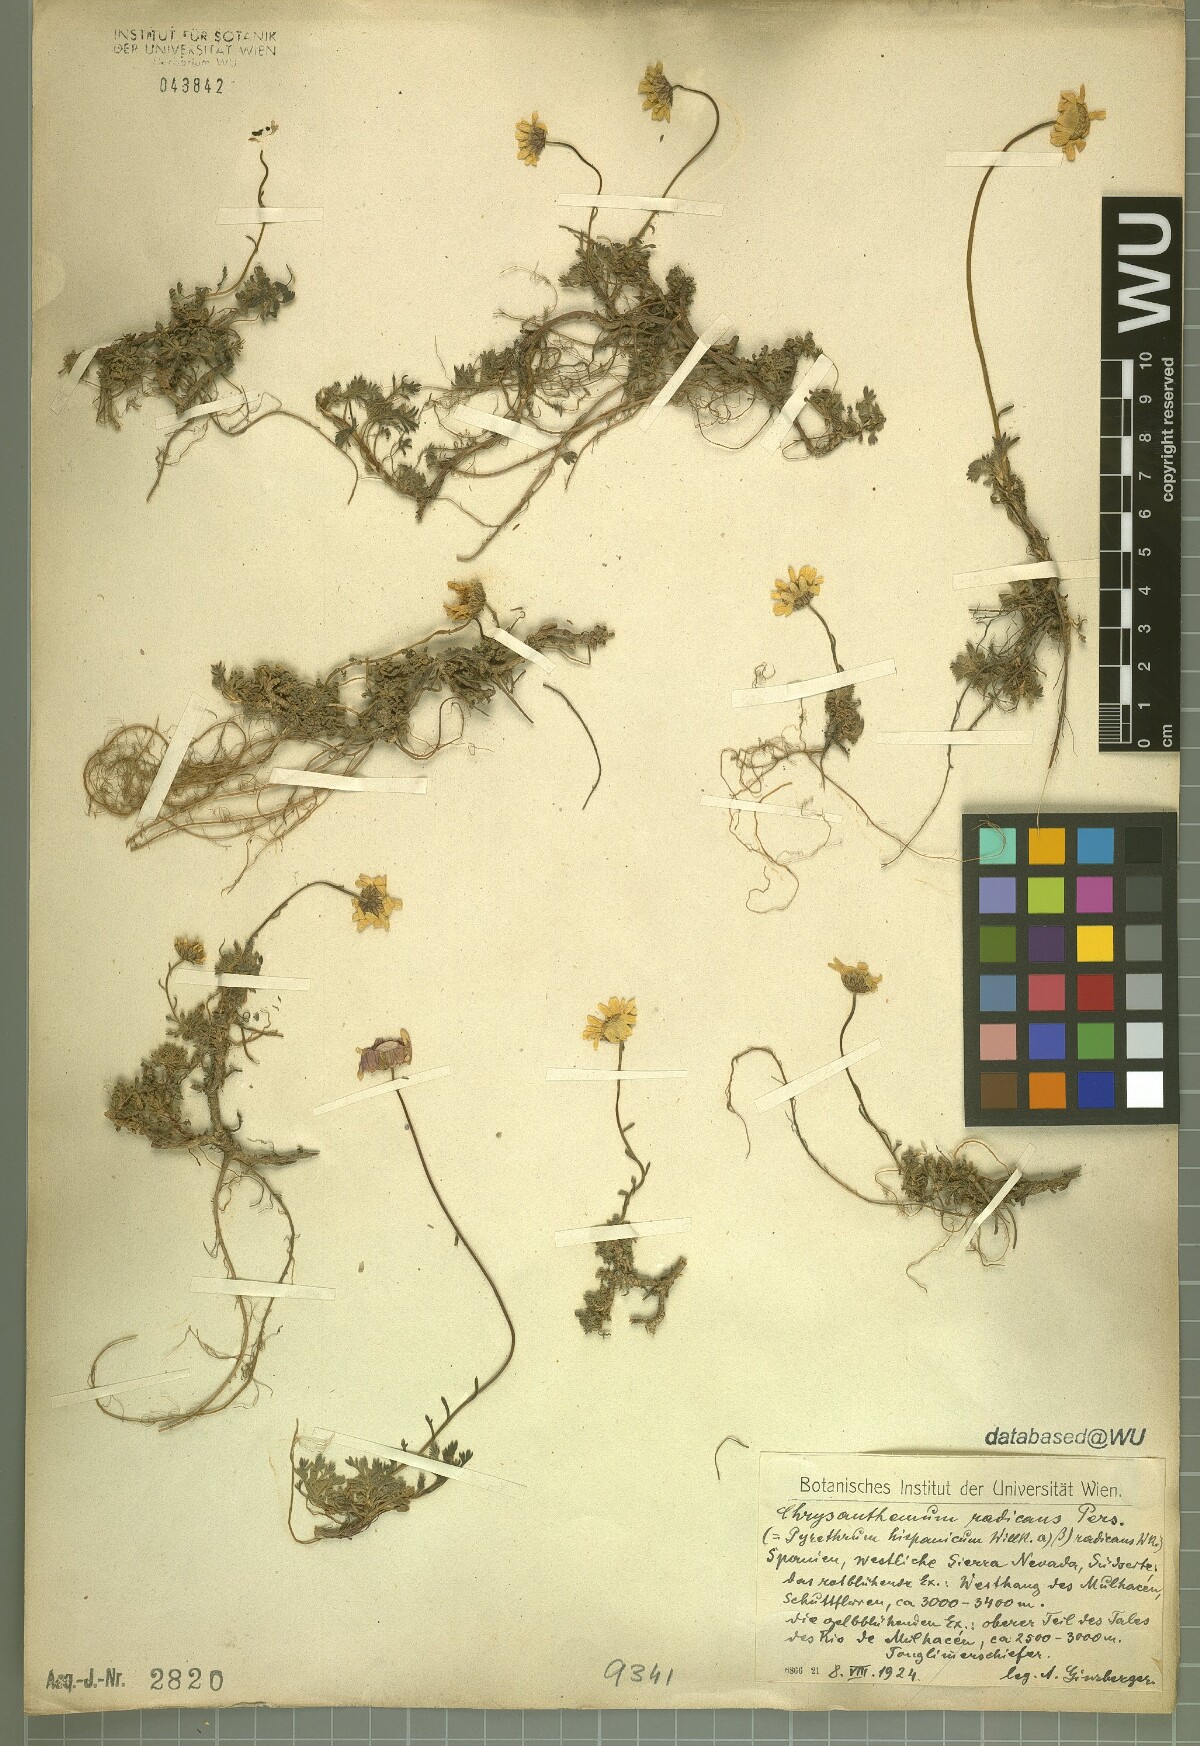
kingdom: Plantae
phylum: Tracheophyta
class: Magnoliopsida
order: Asterales
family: Asteraceae
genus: Leucanthemopsis
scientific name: Leucanthemopsis pallida
